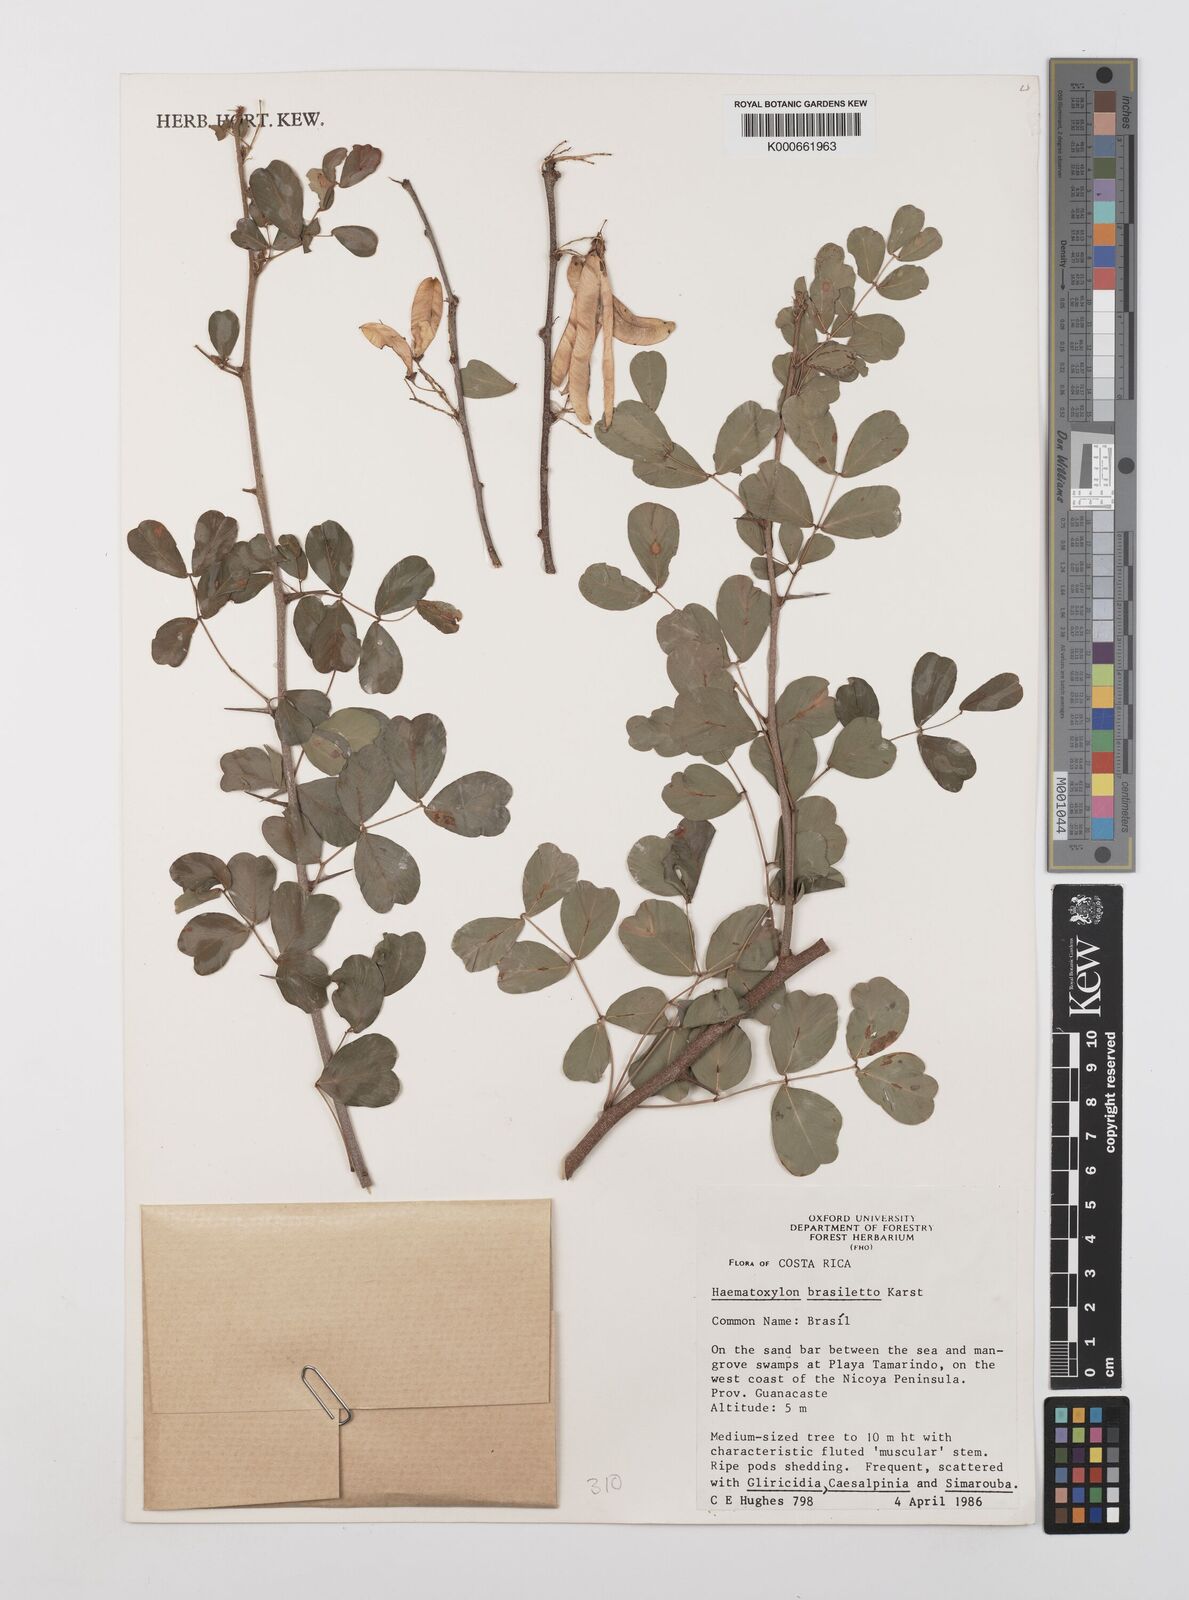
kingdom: Plantae
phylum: Tracheophyta
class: Magnoliopsida
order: Fabales
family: Fabaceae
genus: Haematoxylum
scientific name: Haematoxylum brasiletto
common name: Peachwood
